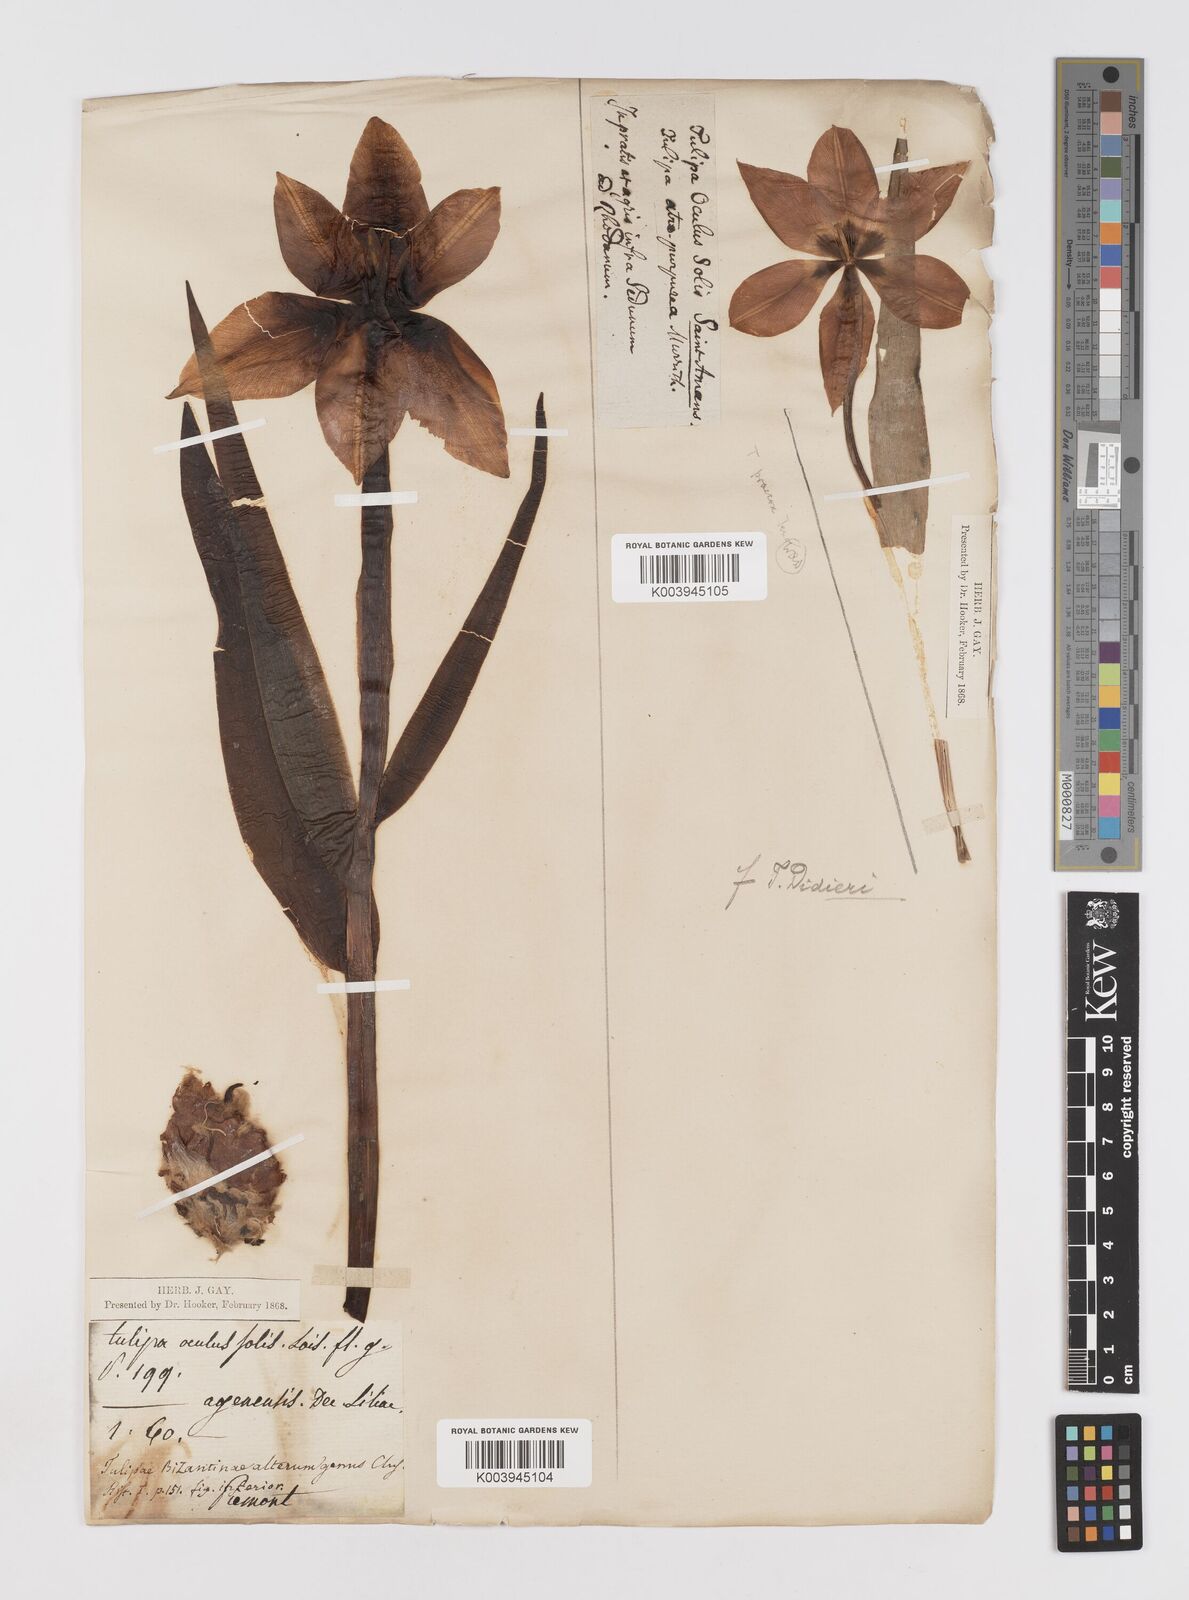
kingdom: Plantae
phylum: Tracheophyta
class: Liliopsida
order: Liliales
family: Liliaceae
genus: Tulipa
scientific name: Tulipa
